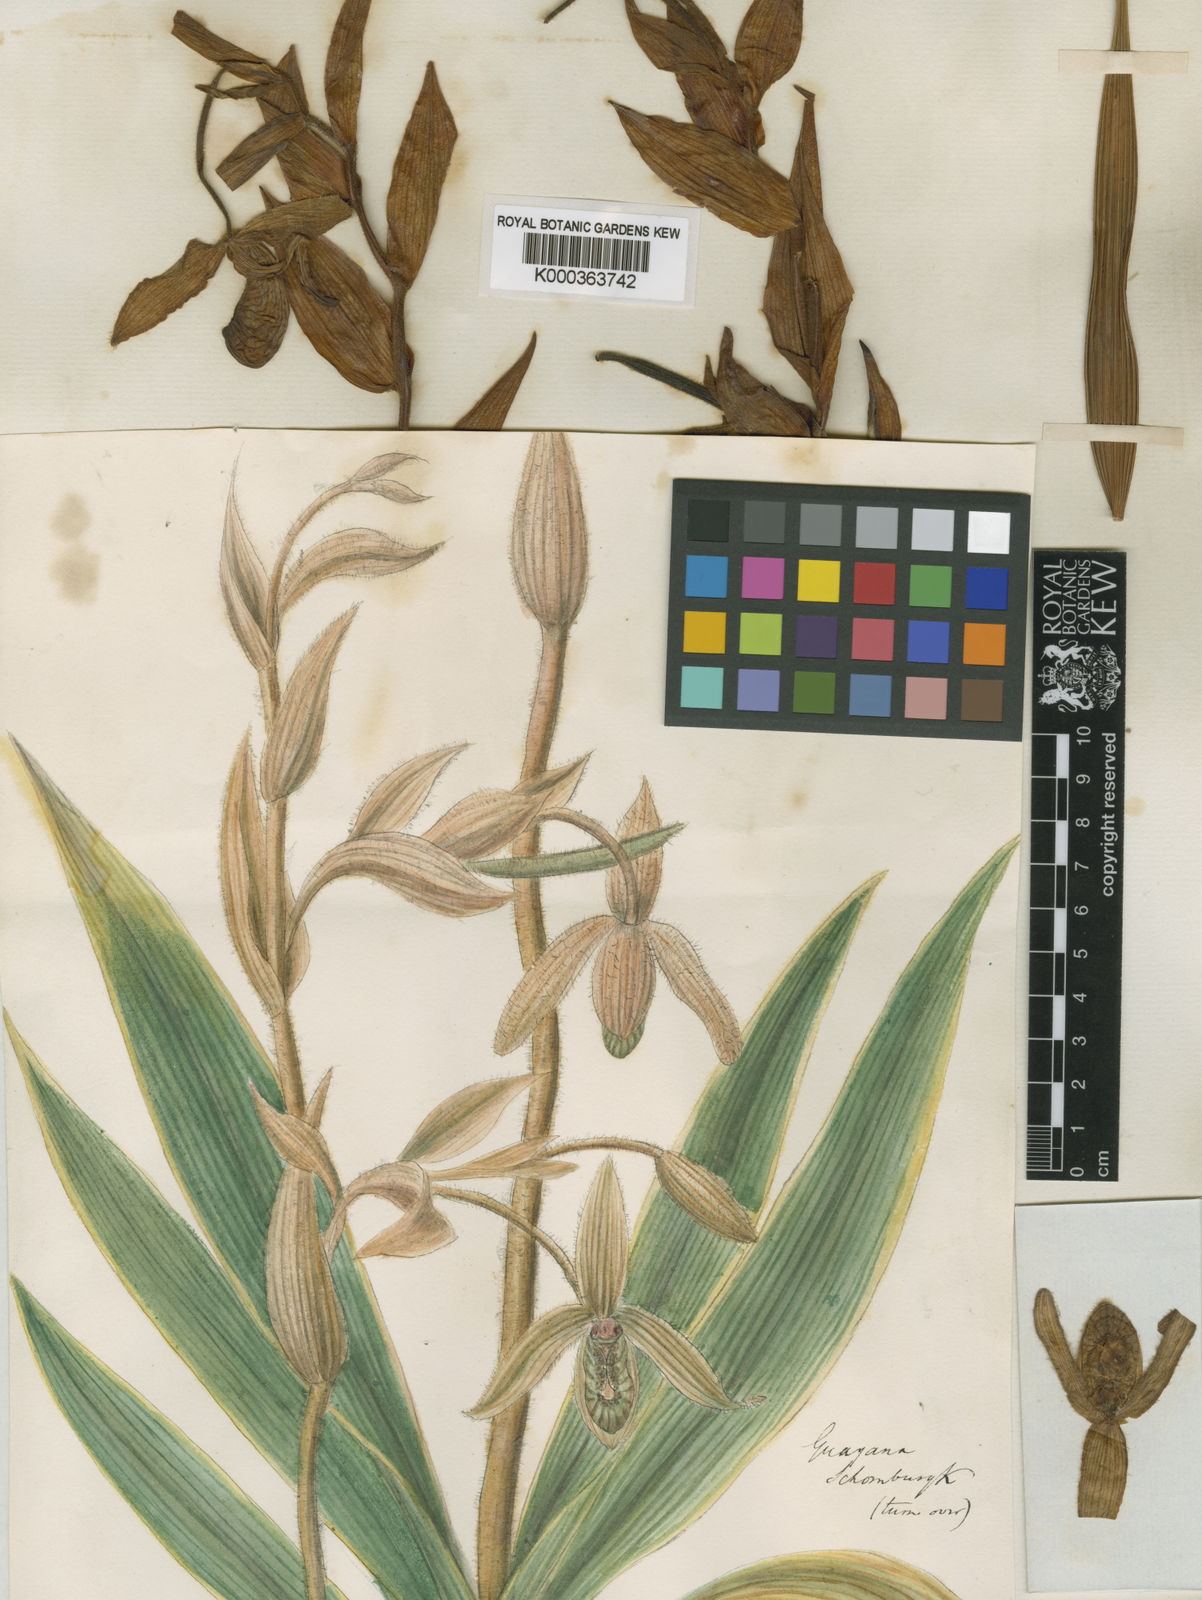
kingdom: Plantae
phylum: Tracheophyta
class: Liliopsida
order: Asparagales
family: Orchidaceae
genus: Phragmipedium
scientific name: Phragmipedium lindleyanum
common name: Lindley's phragmipedium
